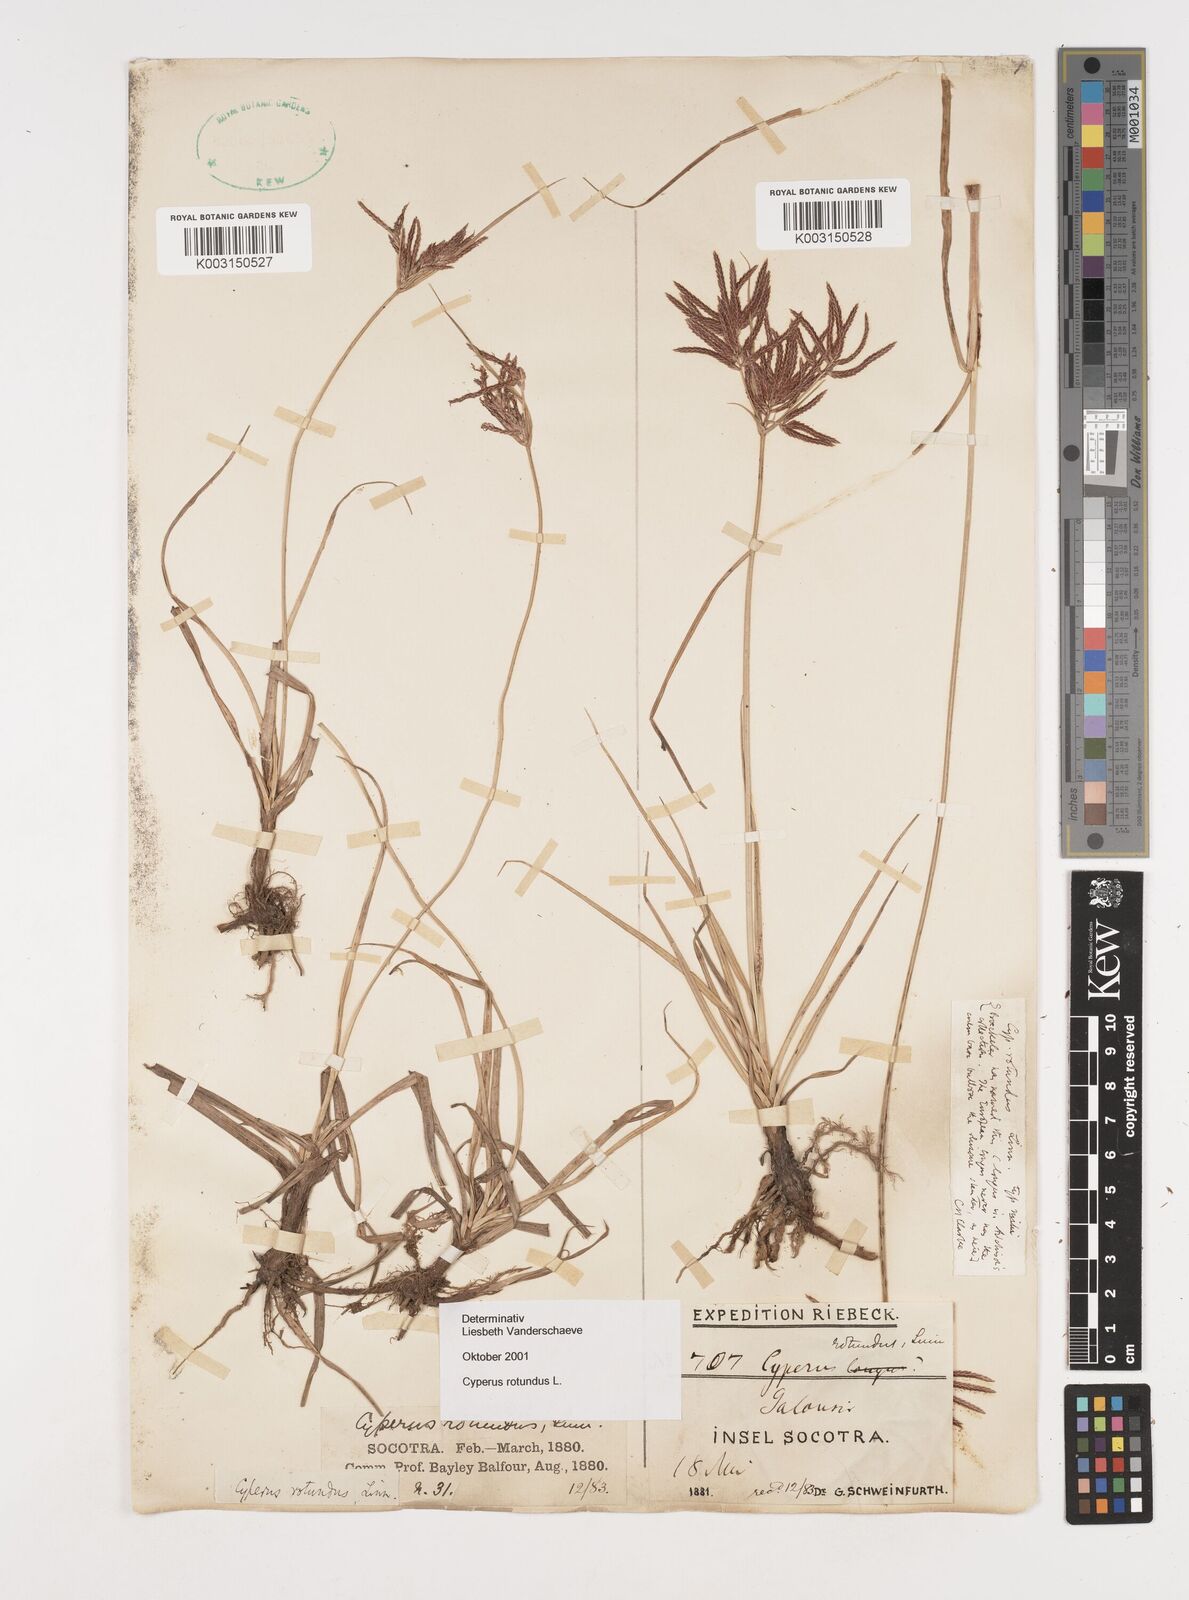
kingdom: Plantae
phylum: Tracheophyta
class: Liliopsida
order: Poales
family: Cyperaceae
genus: Cyperus
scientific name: Cyperus rotundus
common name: Nutgrass
